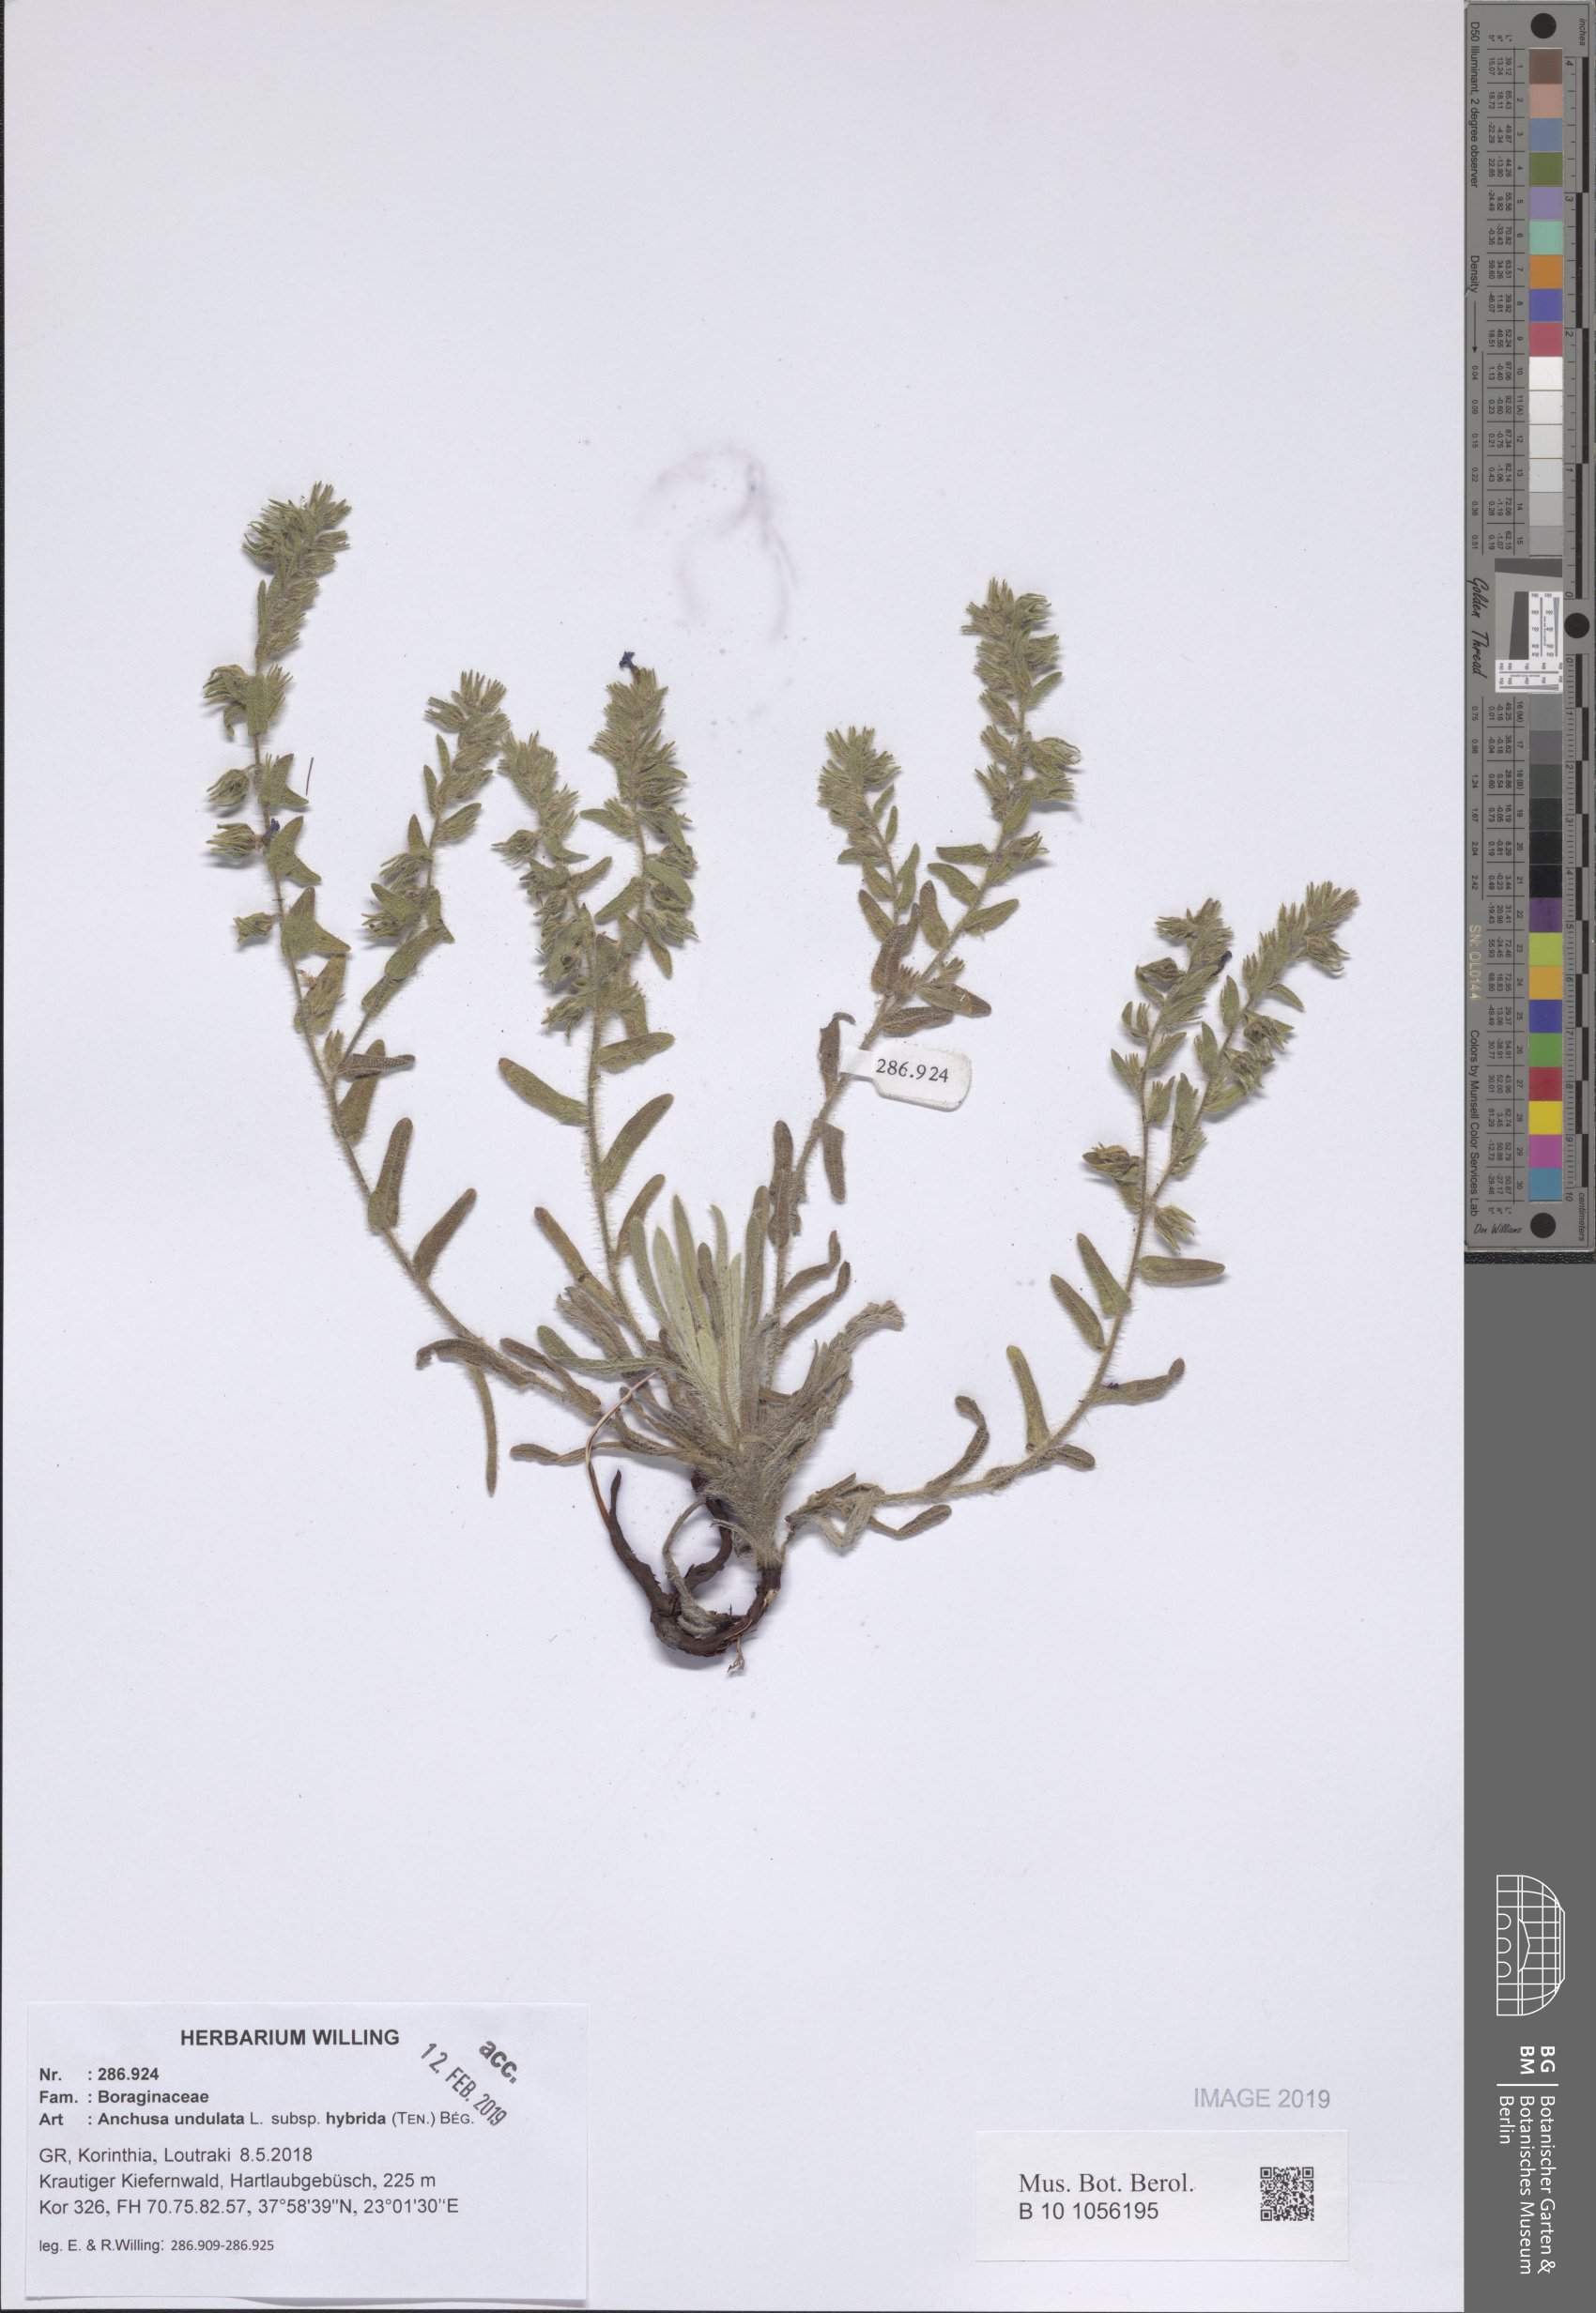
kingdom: Plantae
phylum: Tracheophyta
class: Magnoliopsida
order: Boraginales
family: Boraginaceae
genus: Anchusa
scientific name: Anchusa undulata
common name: Undulate alkanet
